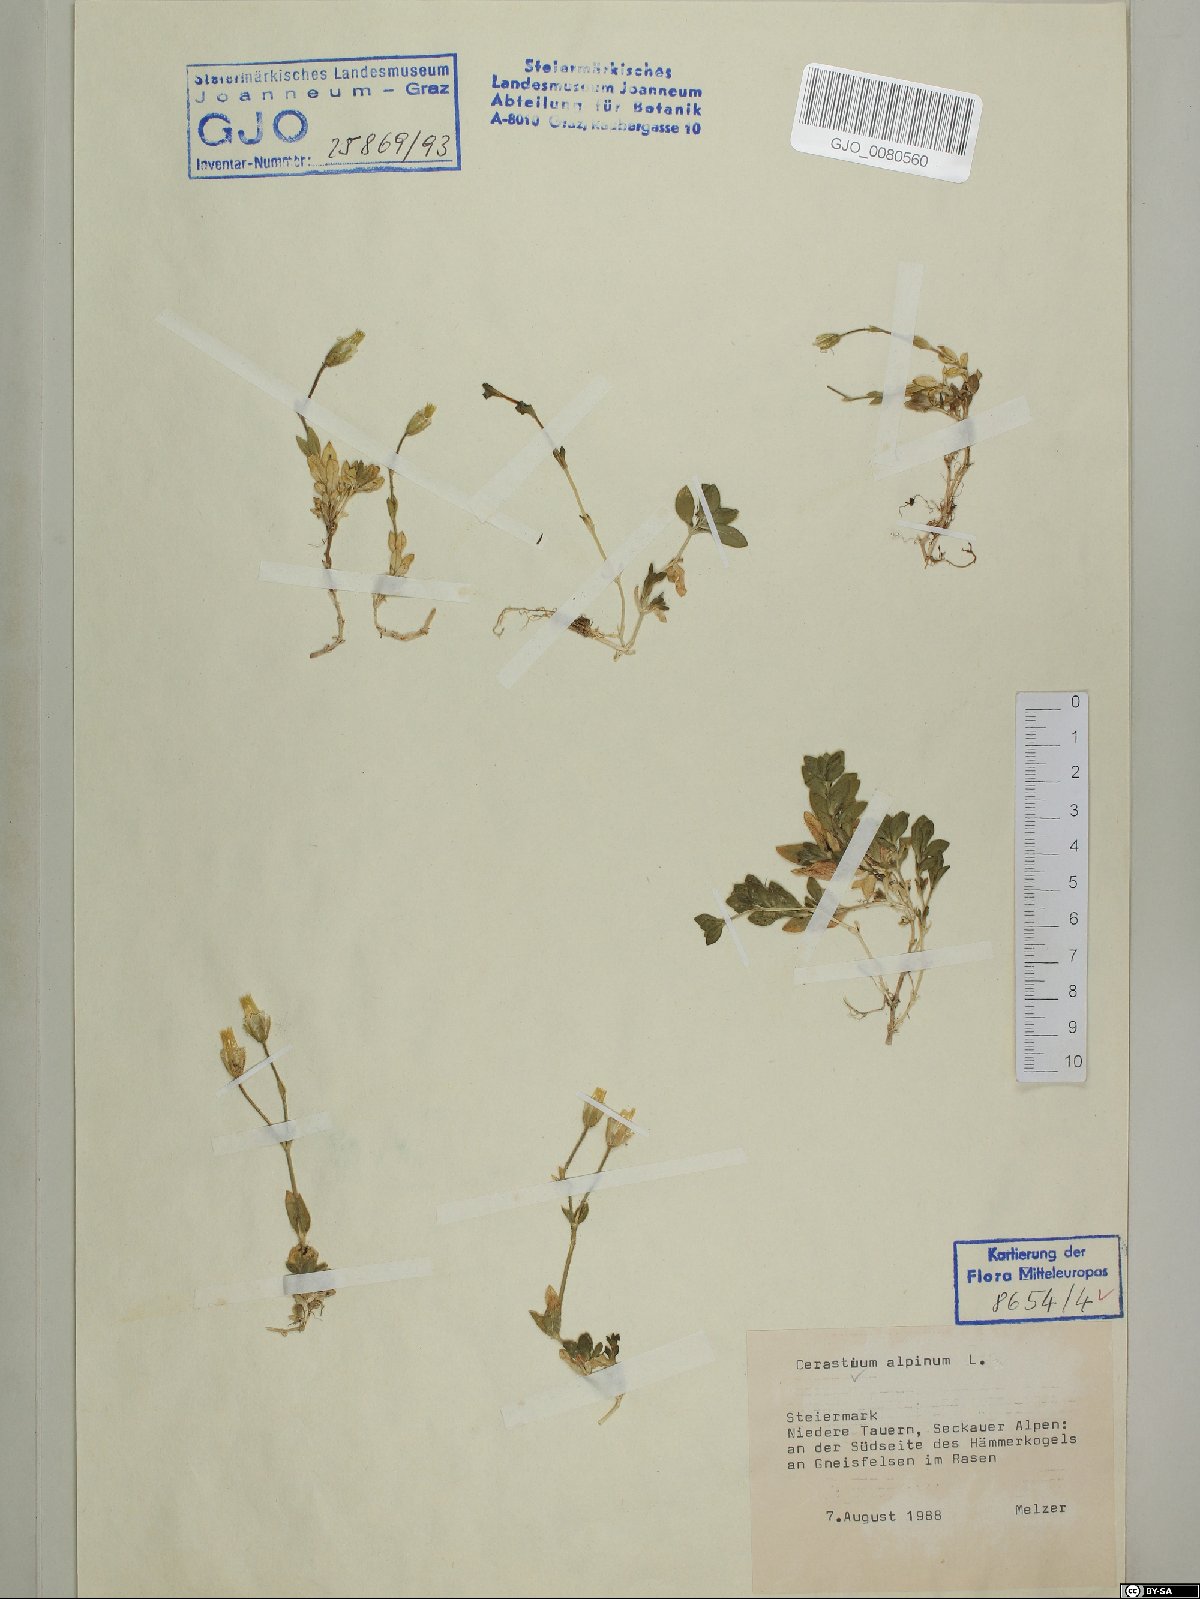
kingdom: Plantae
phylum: Tracheophyta
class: Magnoliopsida
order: Caryophyllales
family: Caryophyllaceae
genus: Cerastium
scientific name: Cerastium alpinum
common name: Alpine mouse-ear
